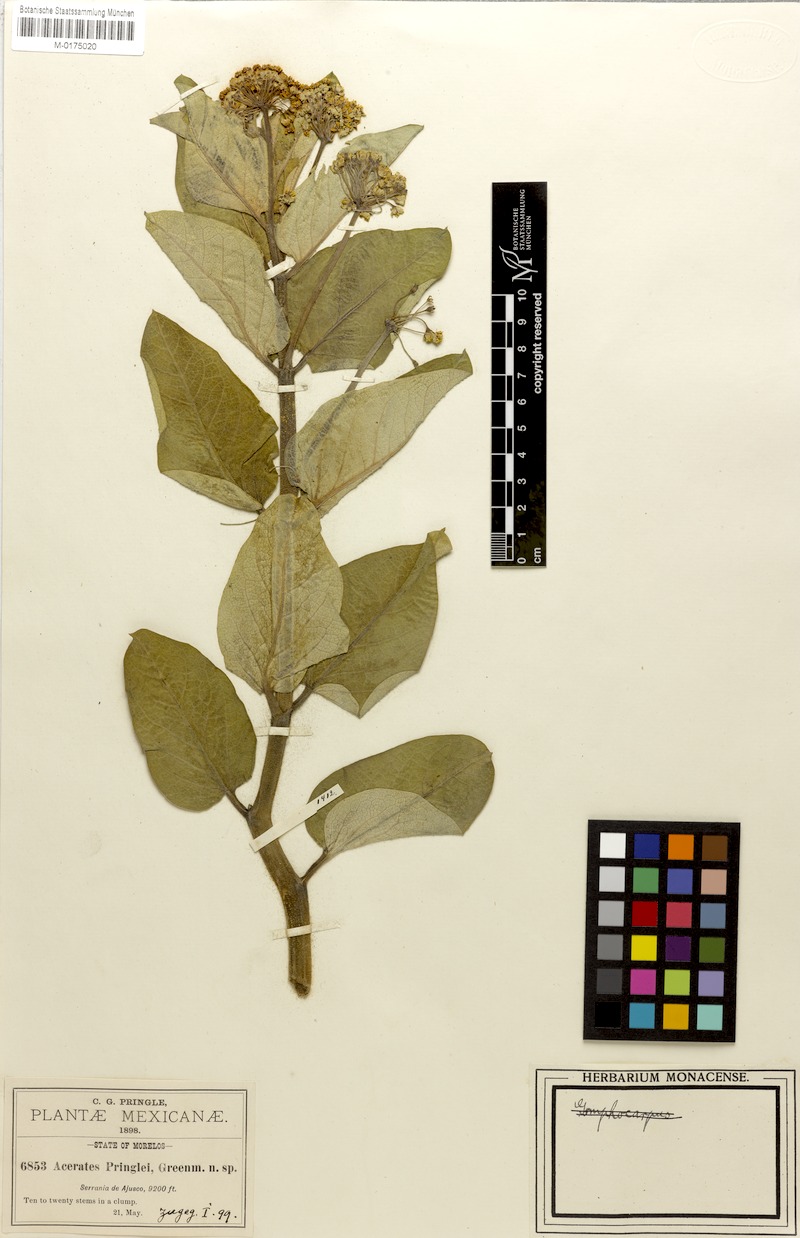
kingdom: Plantae
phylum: Tracheophyta
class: Magnoliopsida
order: Gentianales
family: Apocynaceae
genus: Asclepias
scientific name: Asclepias pringlei
